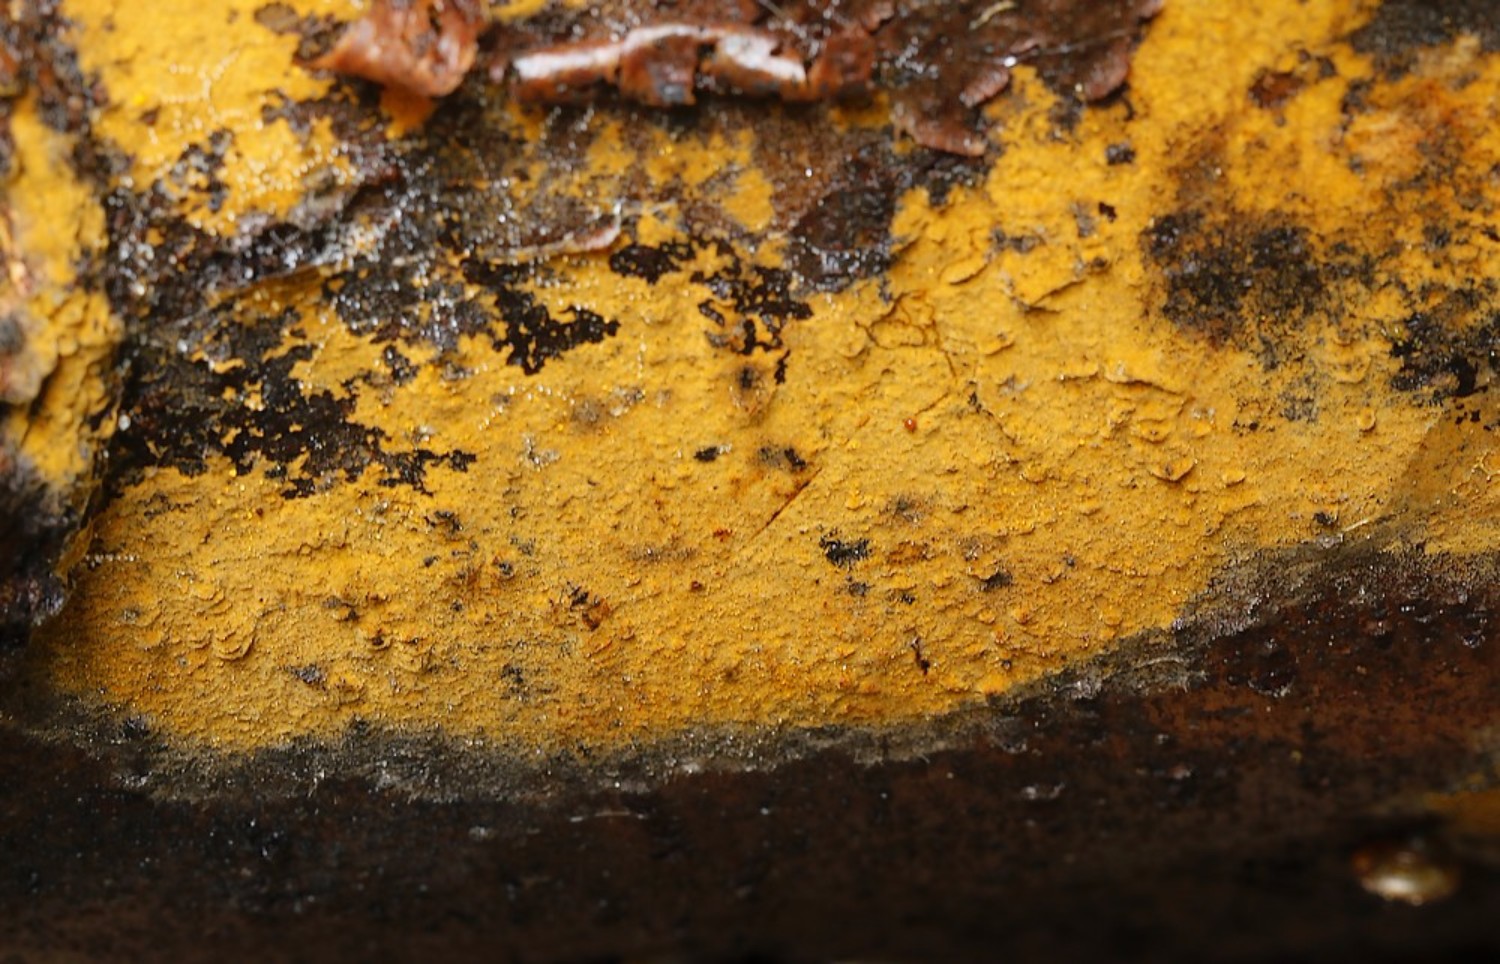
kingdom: Fungi
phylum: Basidiomycota
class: Agaricomycetes
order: Thelephorales
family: Thelephoraceae
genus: Tomentella
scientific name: Tomentella
